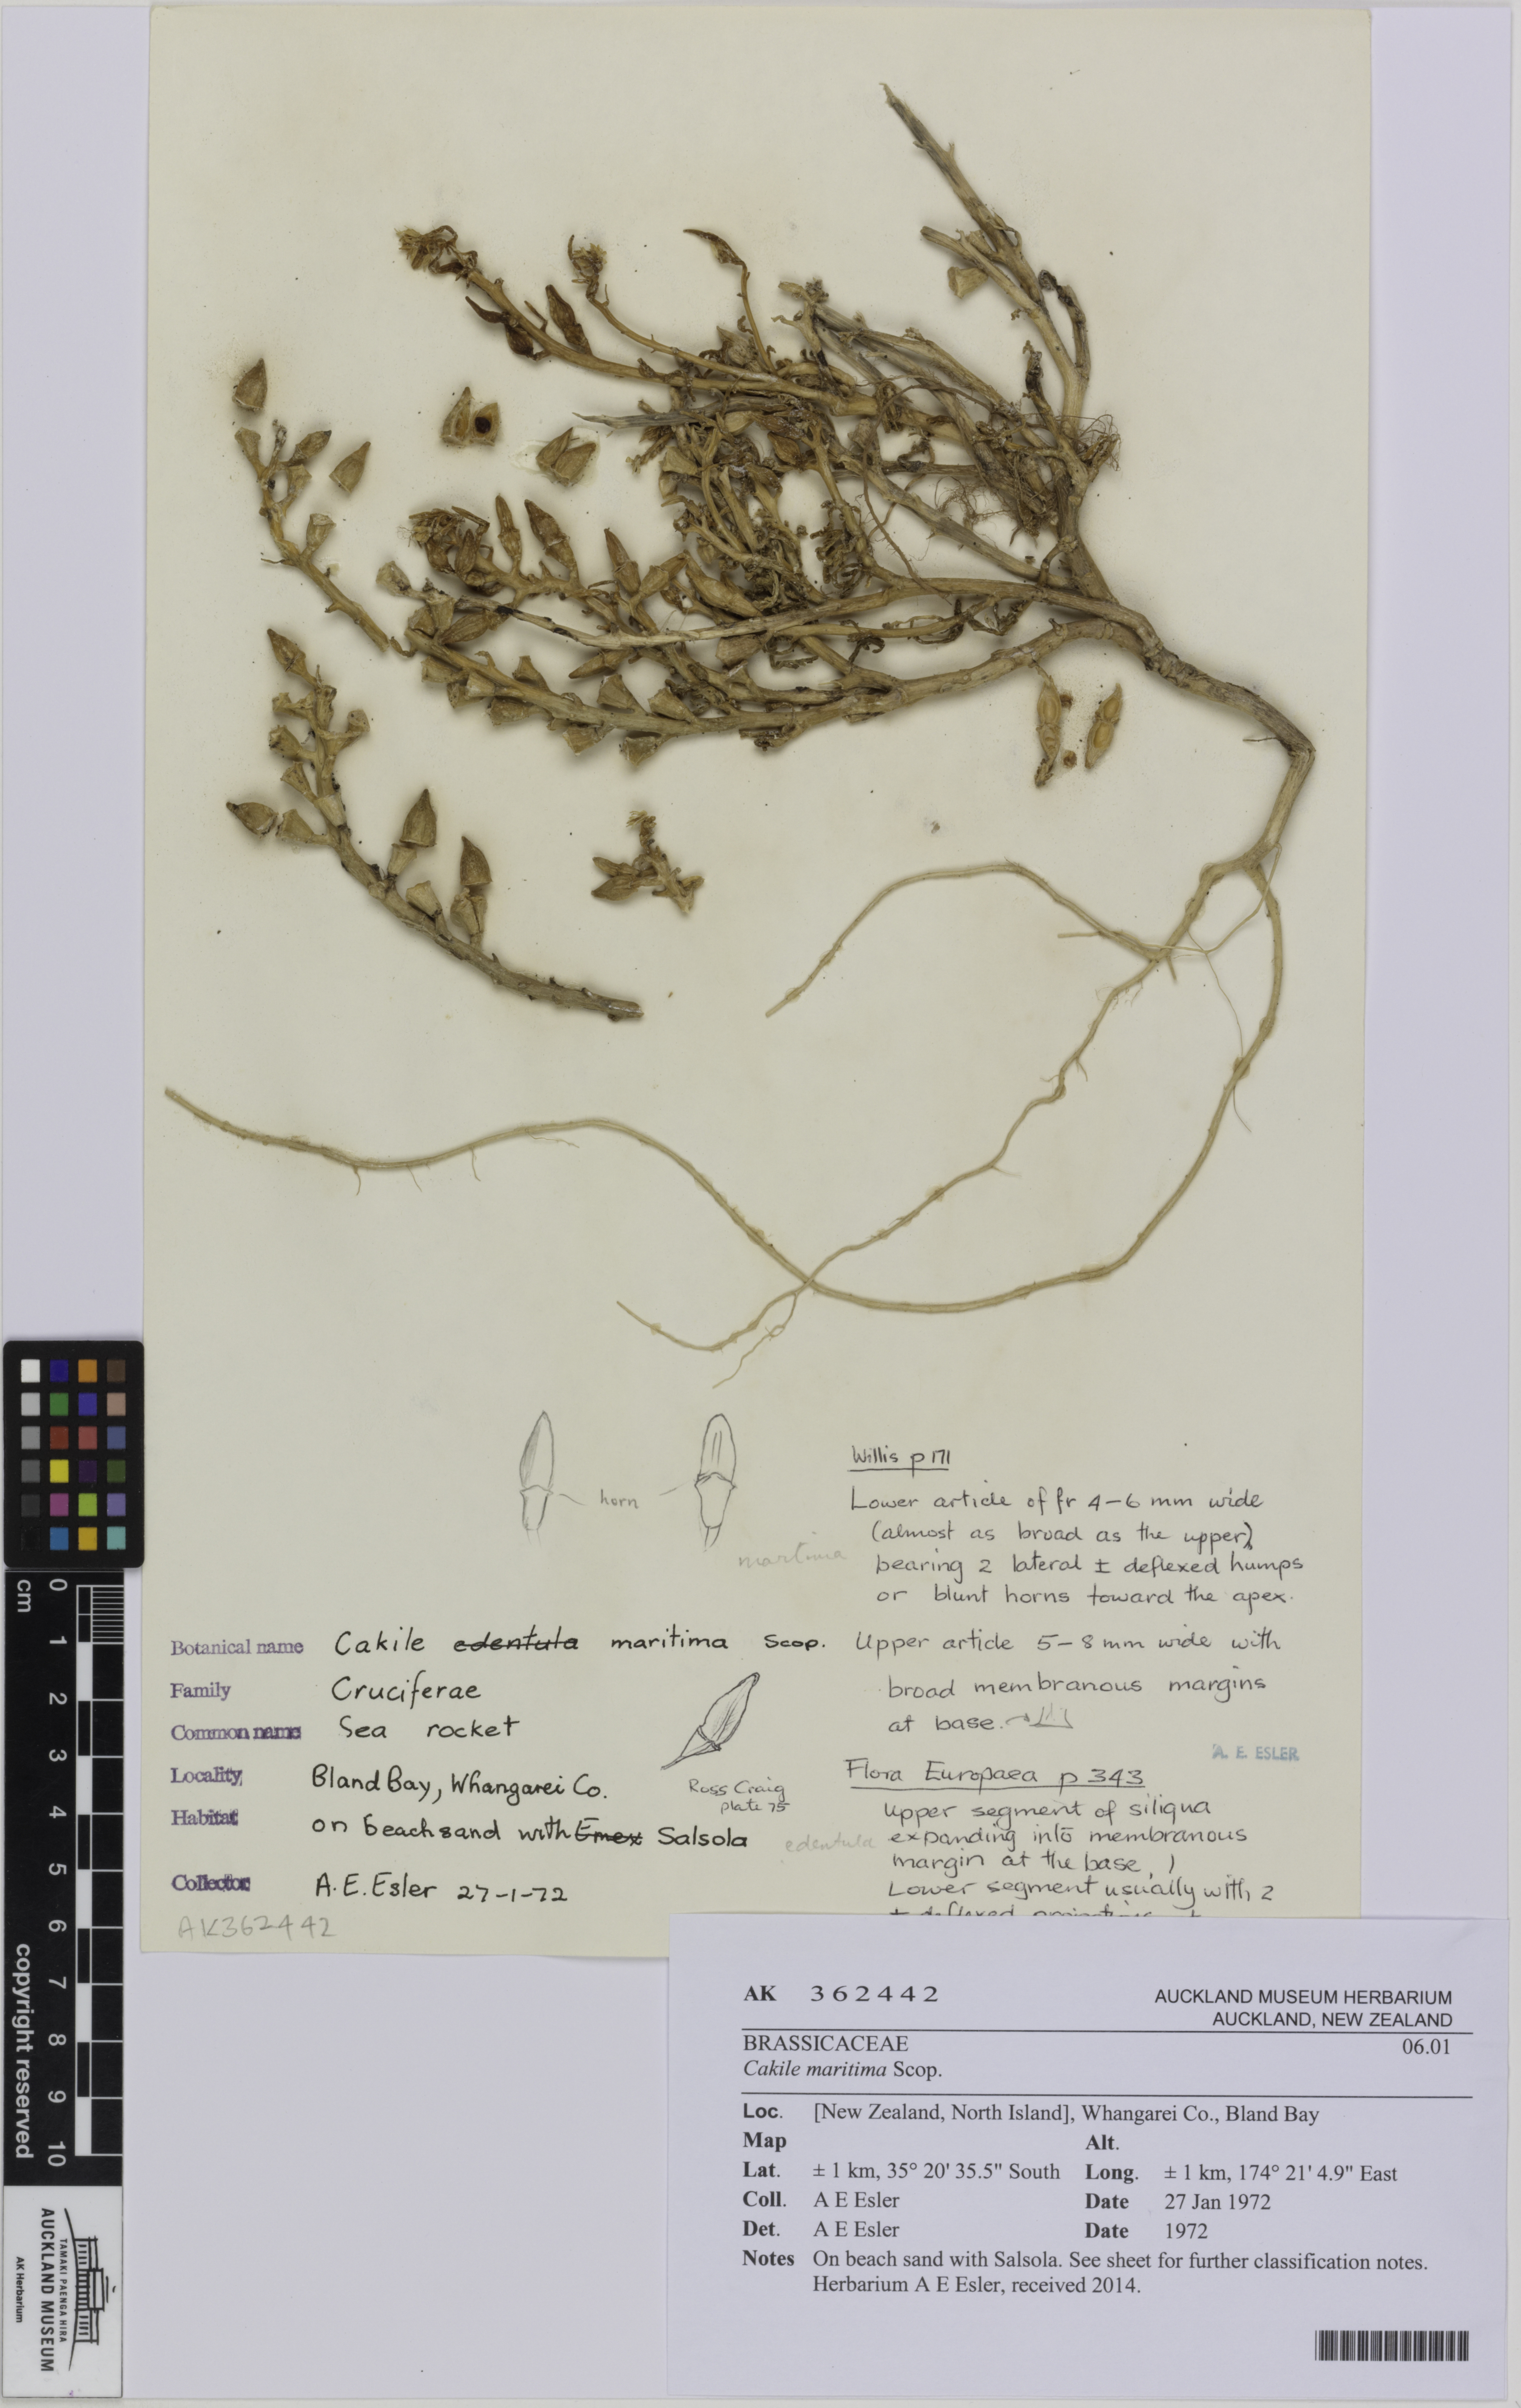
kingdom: Plantae
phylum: Tracheophyta
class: Magnoliopsida
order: Brassicales
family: Brassicaceae
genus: Cakile
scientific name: Cakile maritima
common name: Sea rocket
